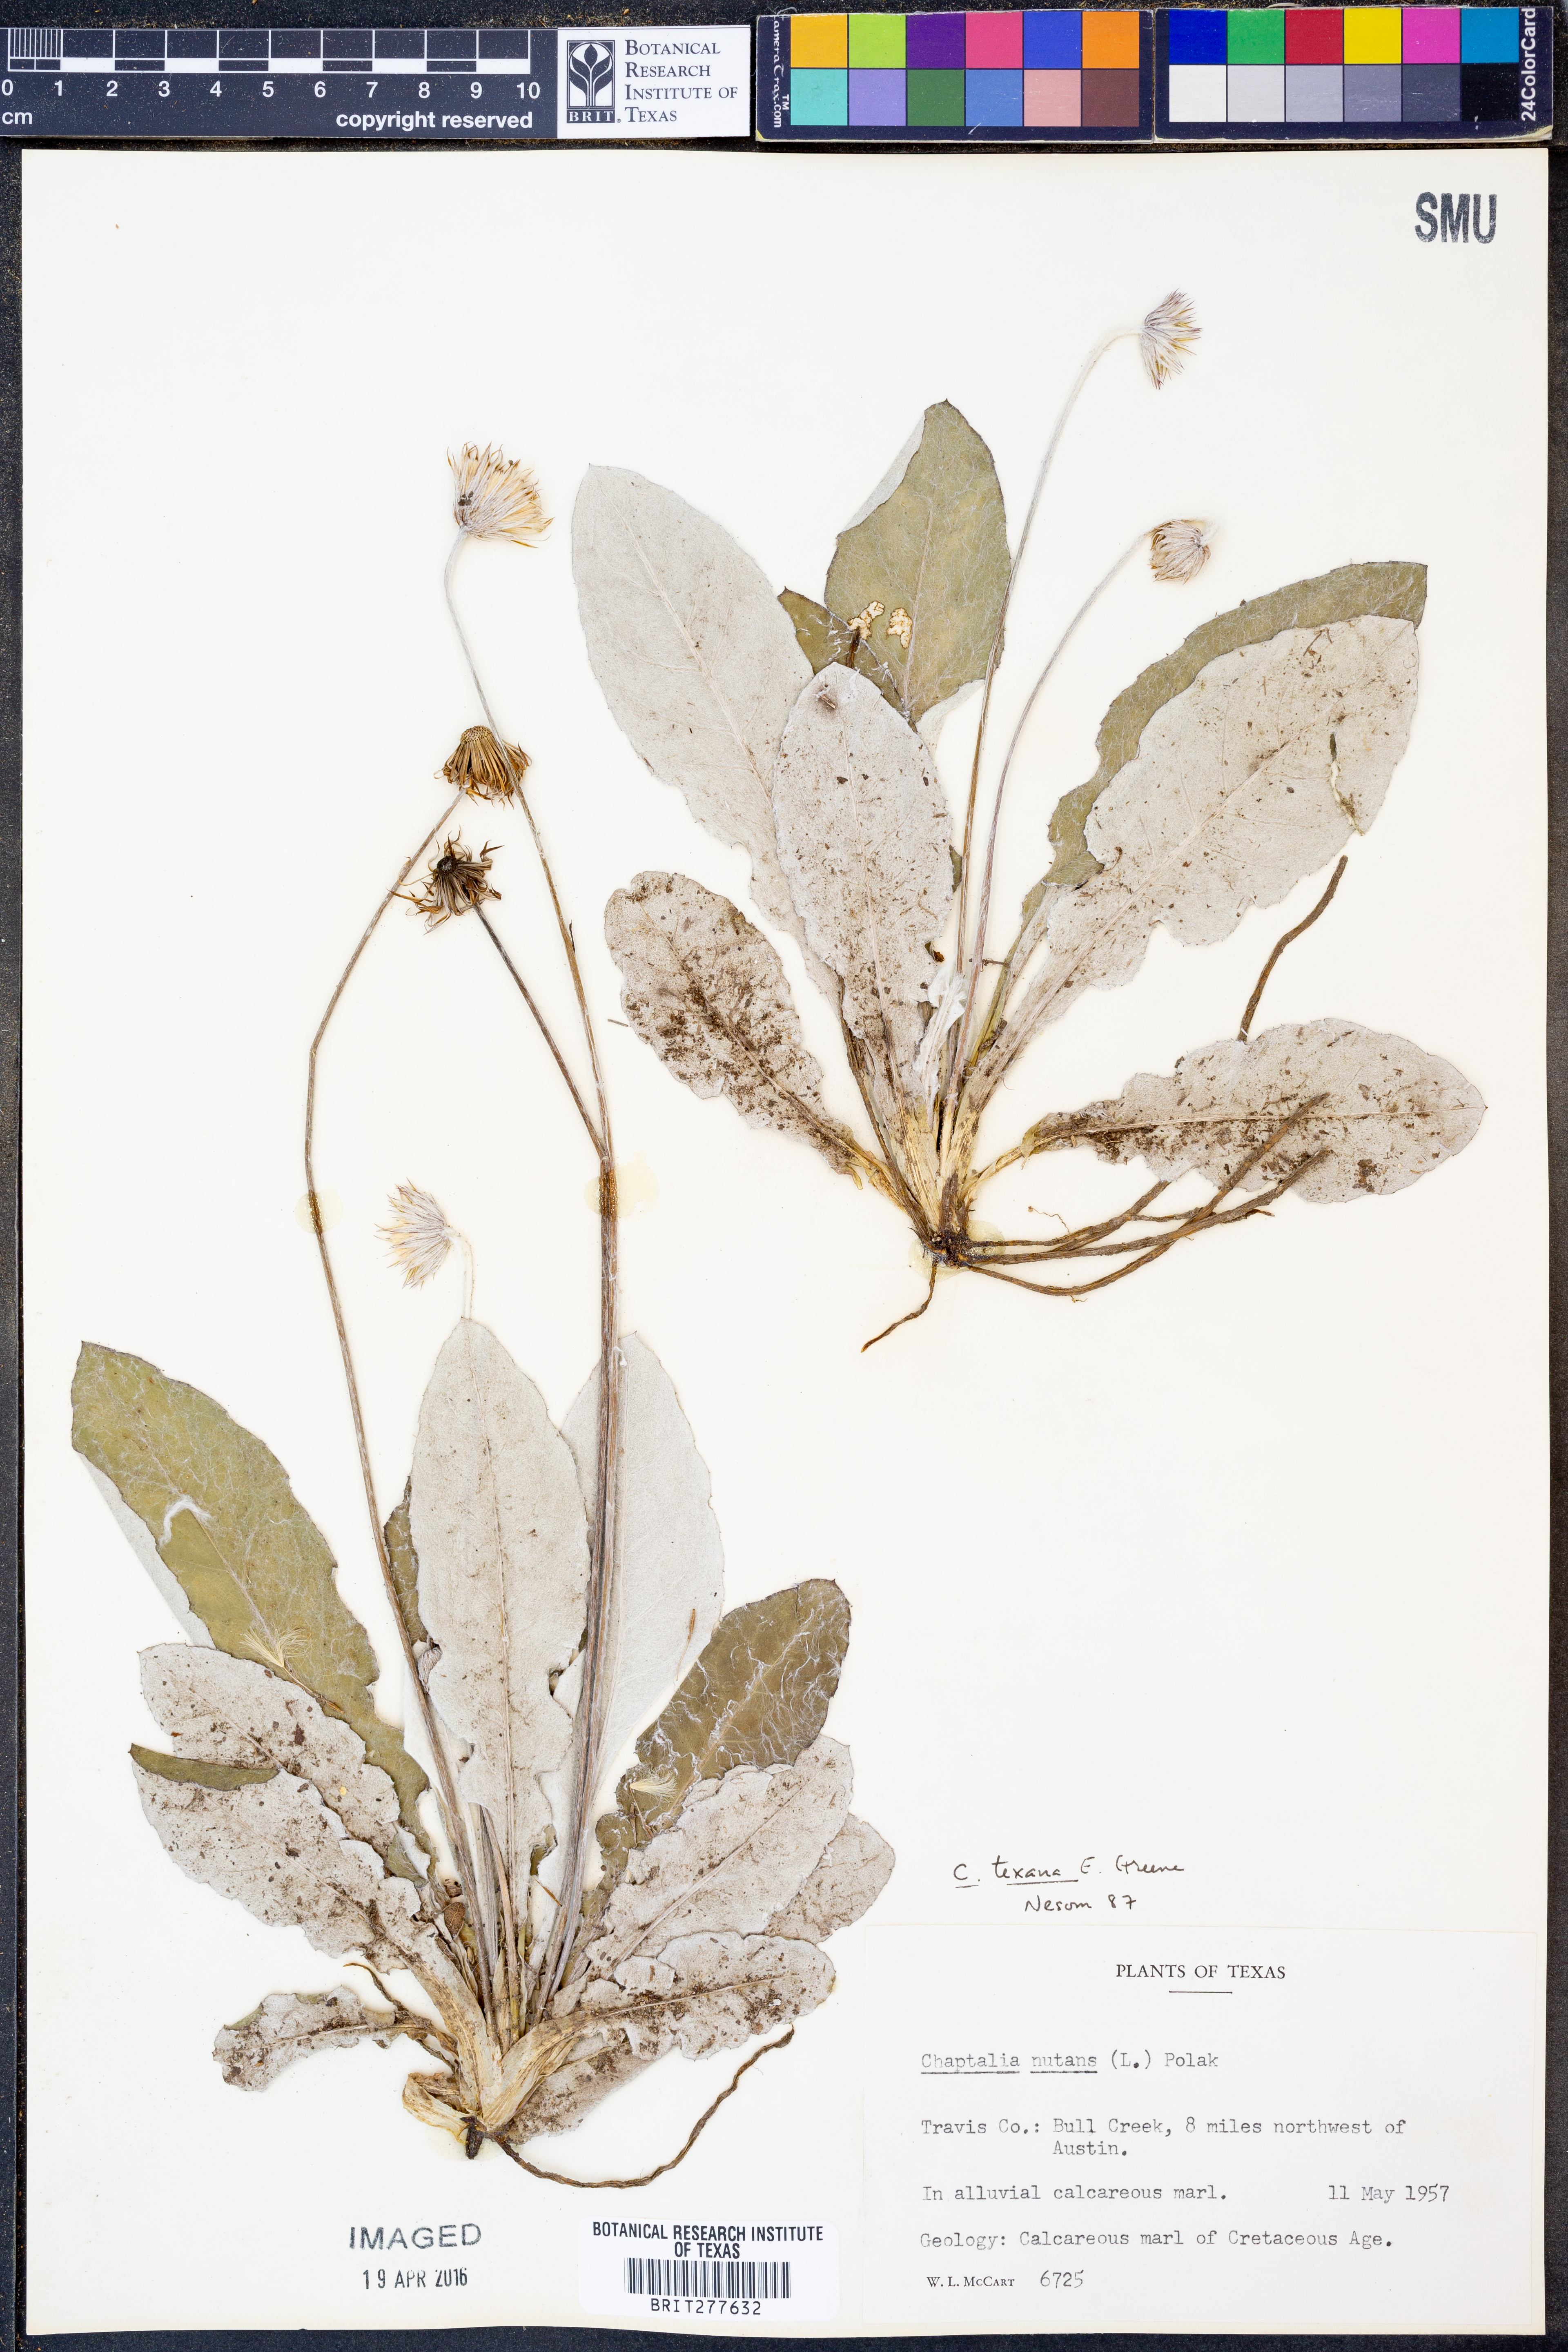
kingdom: Plantae
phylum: Tracheophyta
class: Magnoliopsida
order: Asterales
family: Asteraceae
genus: Chaptalia
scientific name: Chaptalia texana
